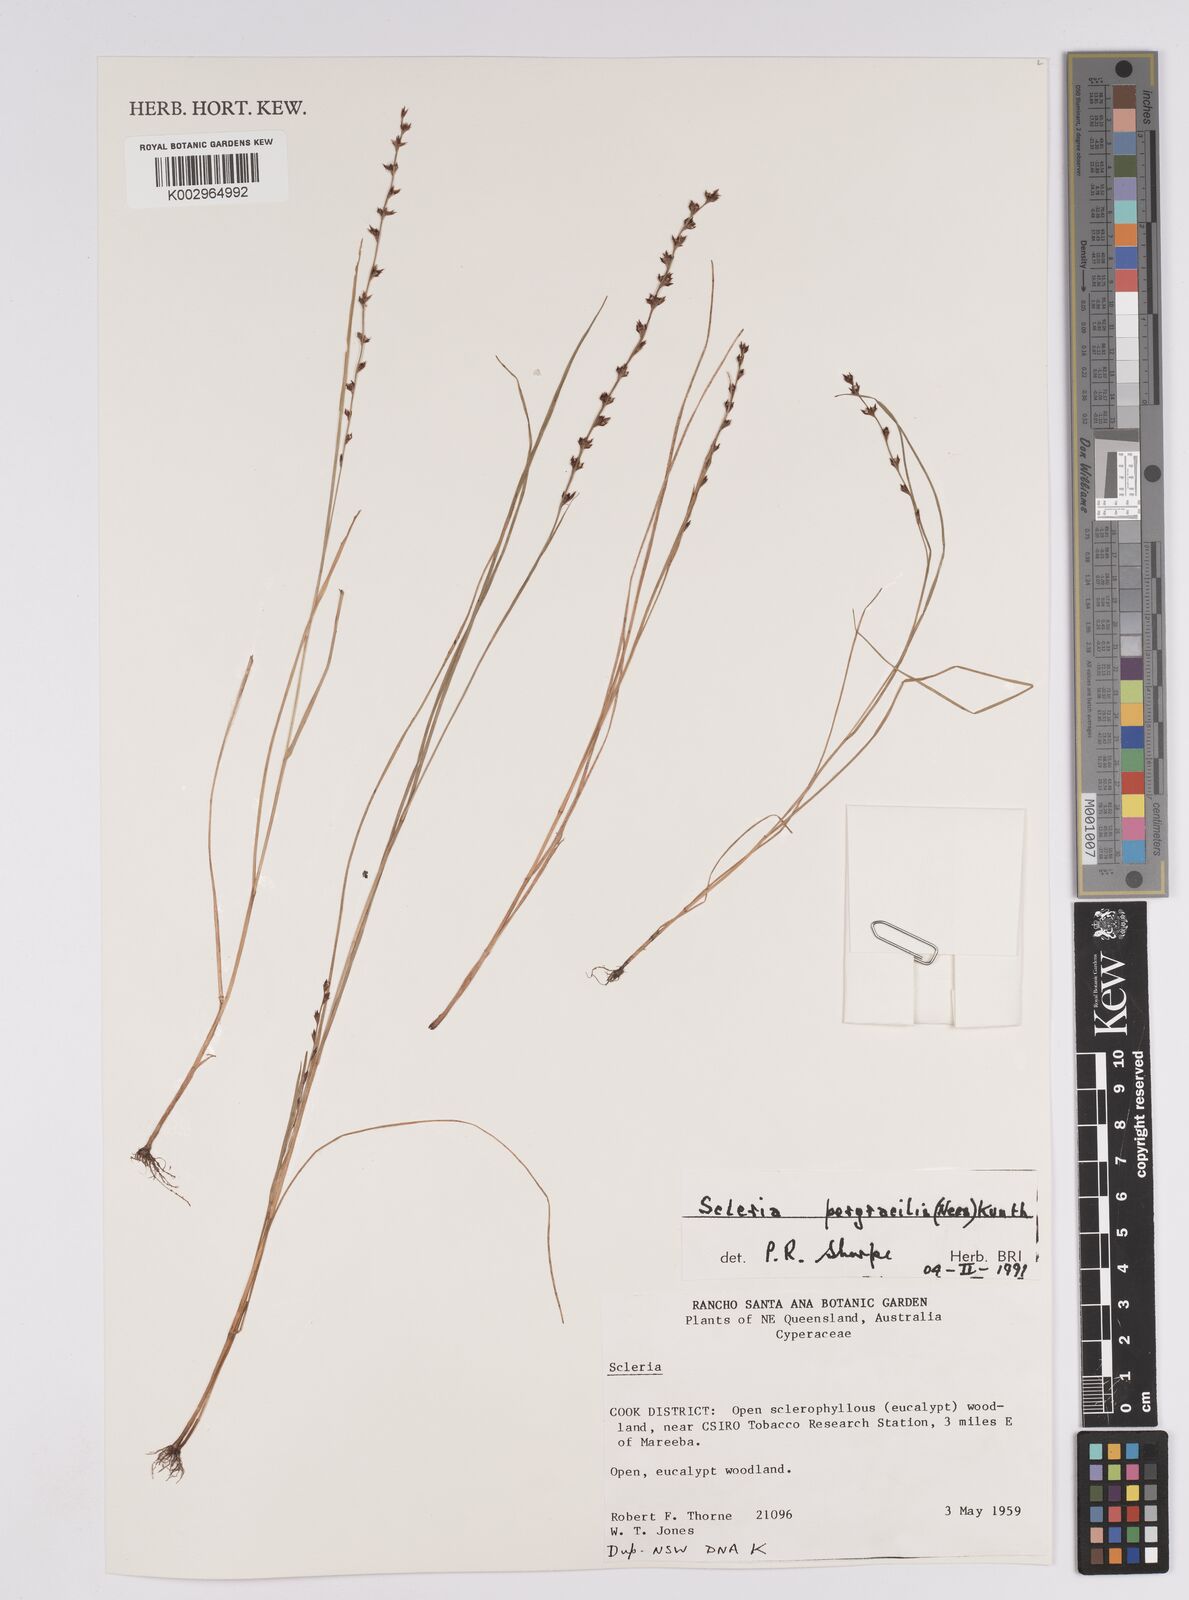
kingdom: Plantae
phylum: Tracheophyta
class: Liliopsida
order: Poales
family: Cyperaceae
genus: Scleria
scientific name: Scleria pergracilis
